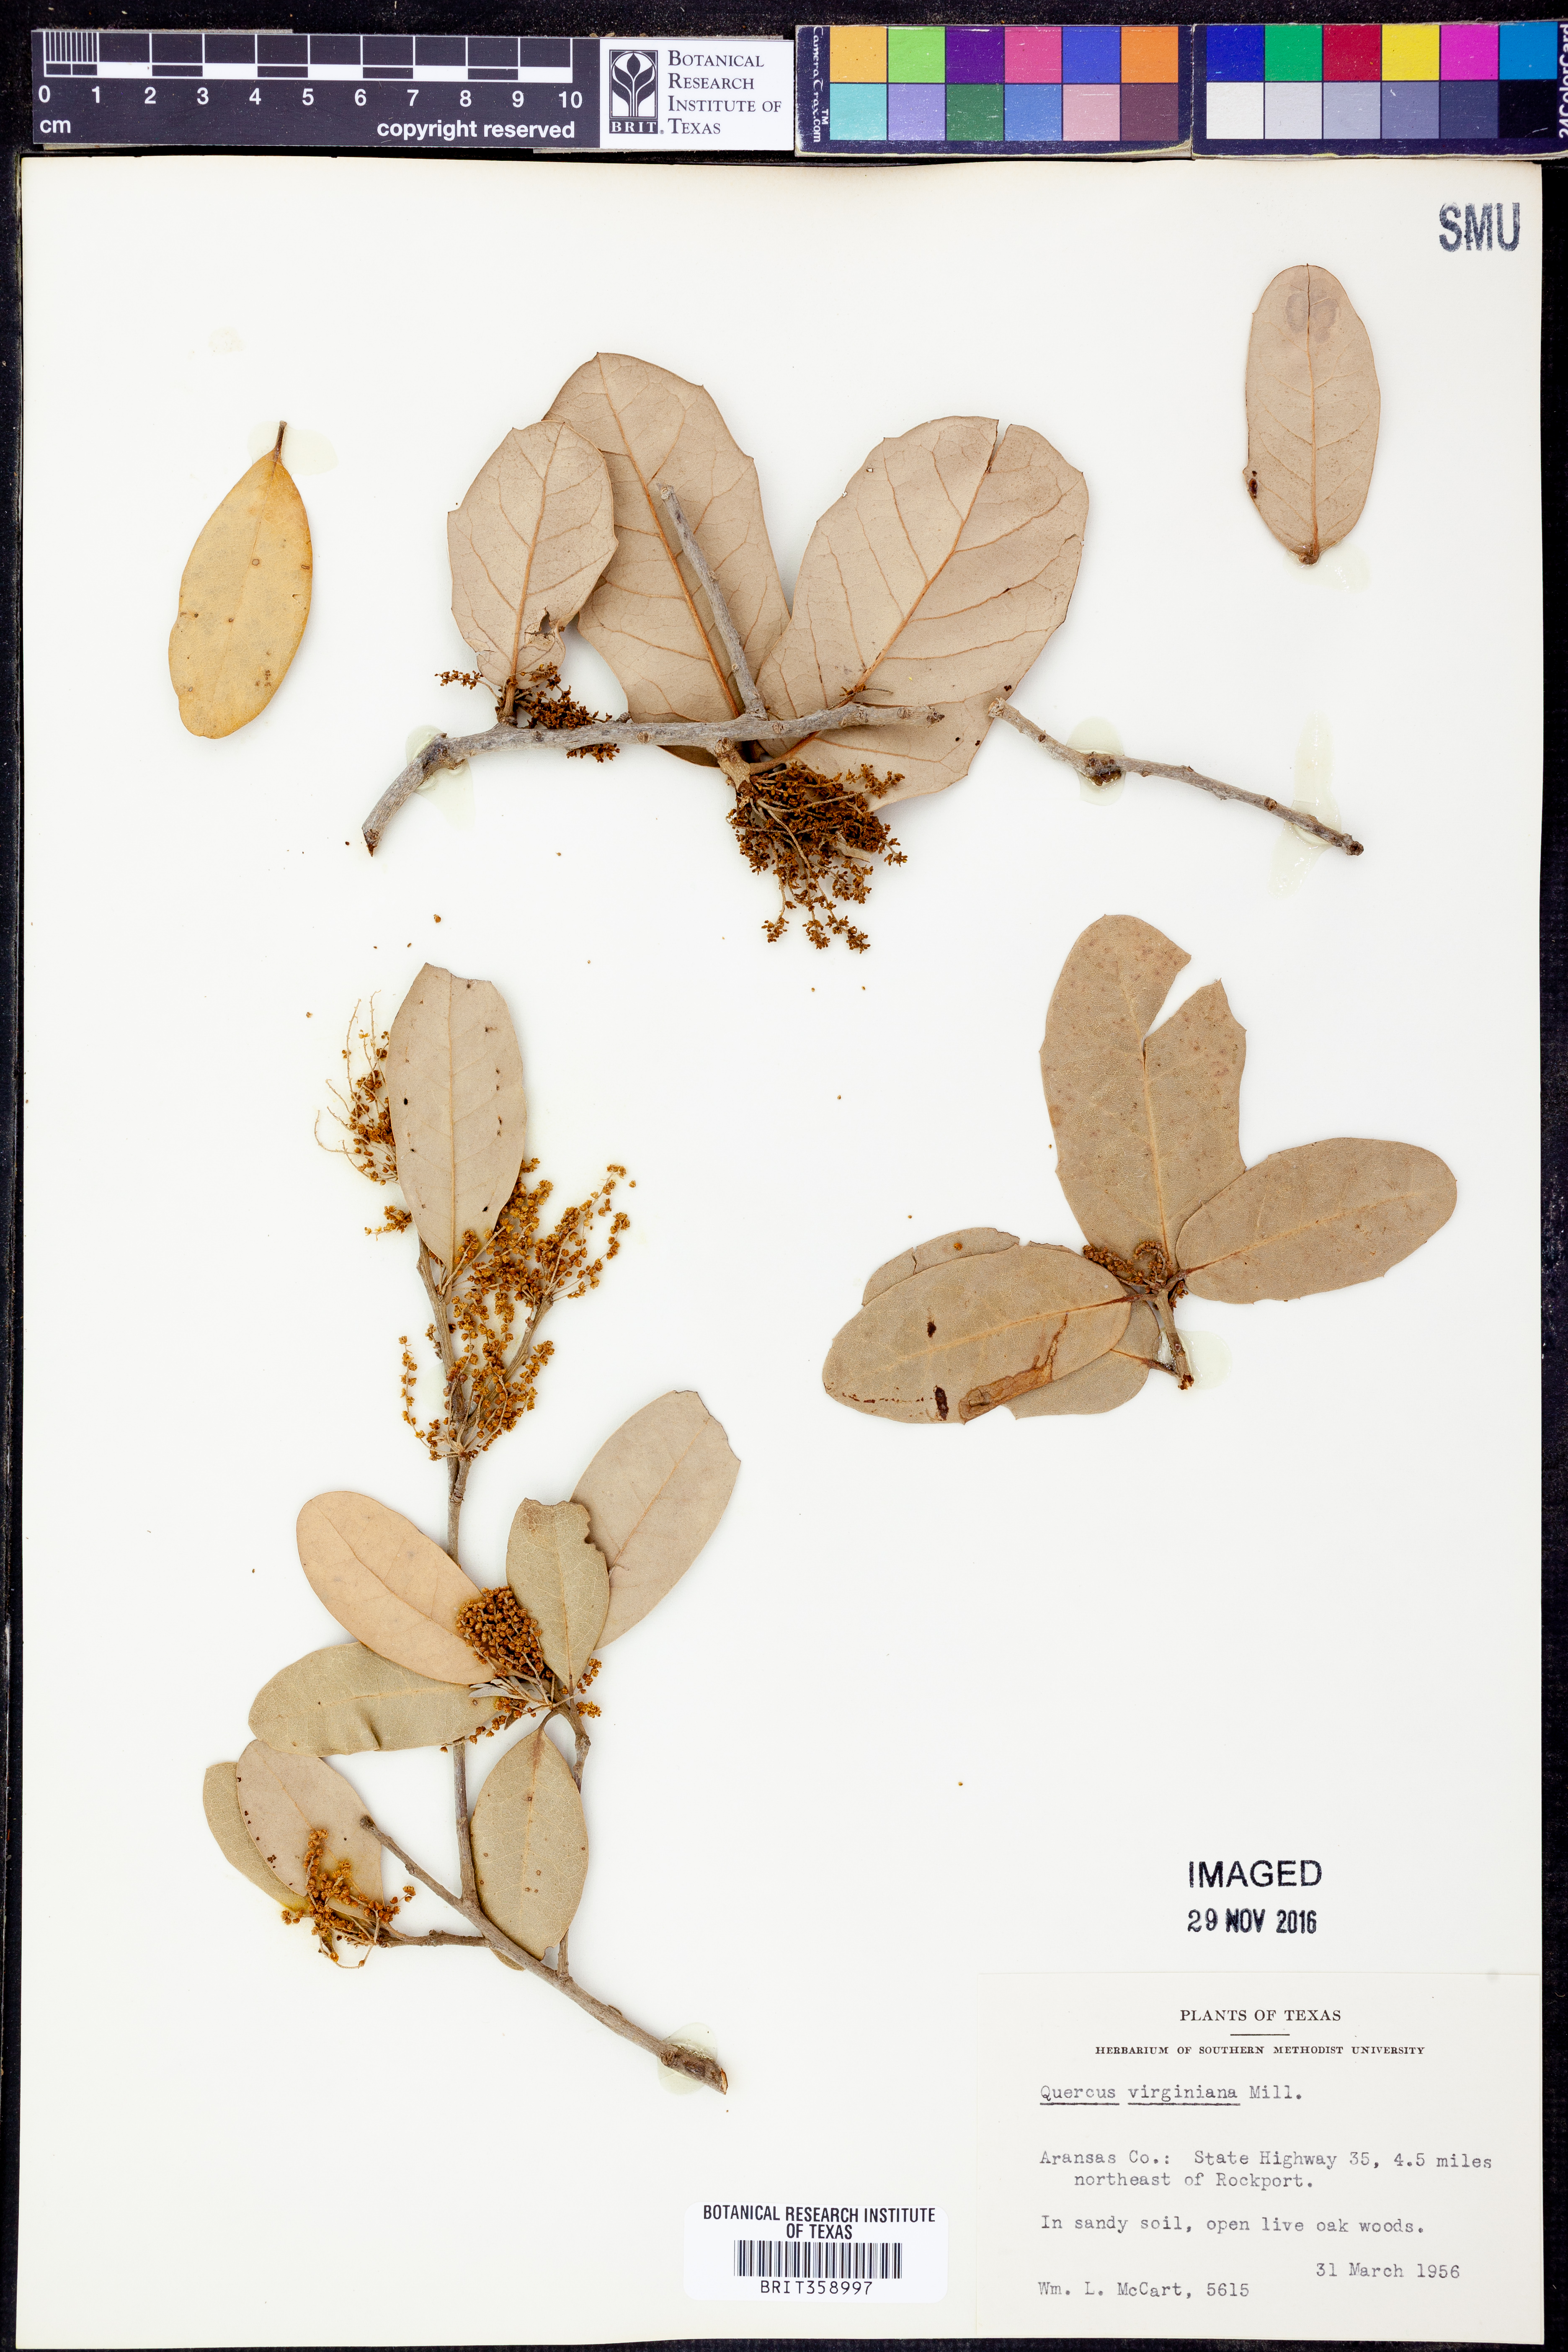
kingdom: Plantae
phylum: Tracheophyta
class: Magnoliopsida
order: Fagales
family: Fagaceae
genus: Quercus
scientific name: Quercus virginiana
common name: Southern live oak
